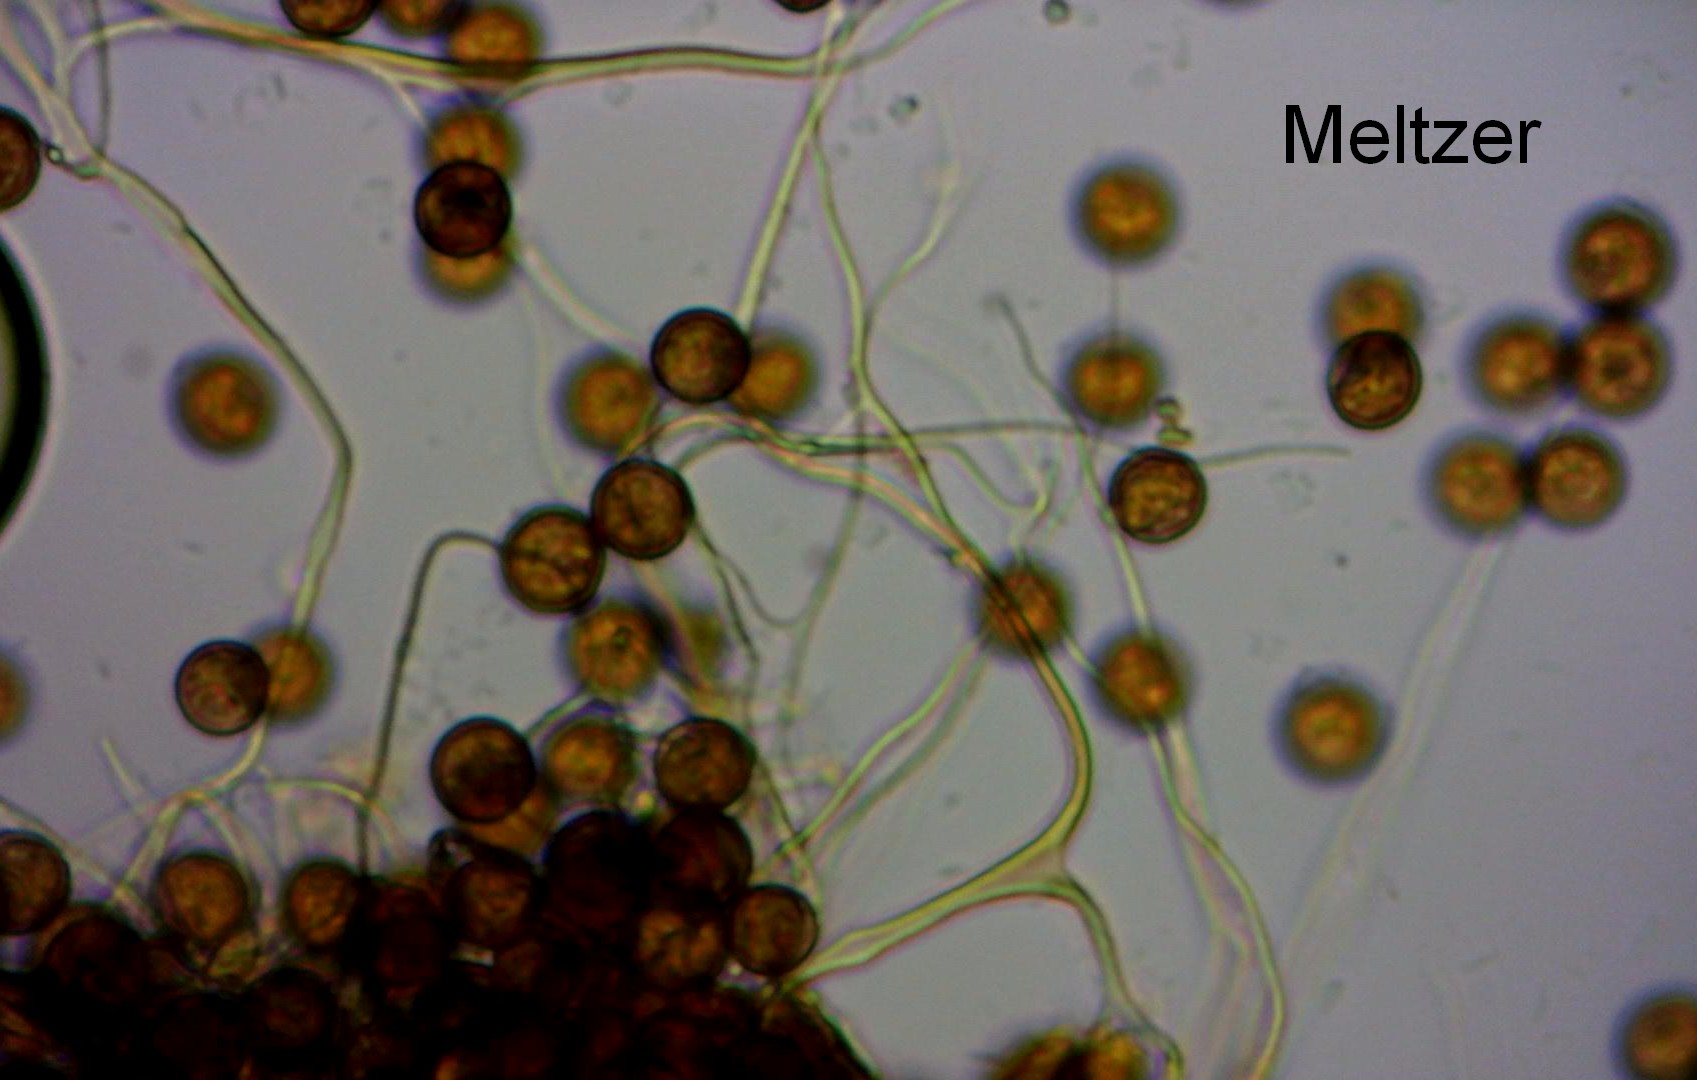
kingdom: Protozoa
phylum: Mycetozoa
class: Myxomycetes
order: Physarales
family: Physaraceae
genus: Fuligo
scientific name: Fuligo septica
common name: Dog vomit slime mold
